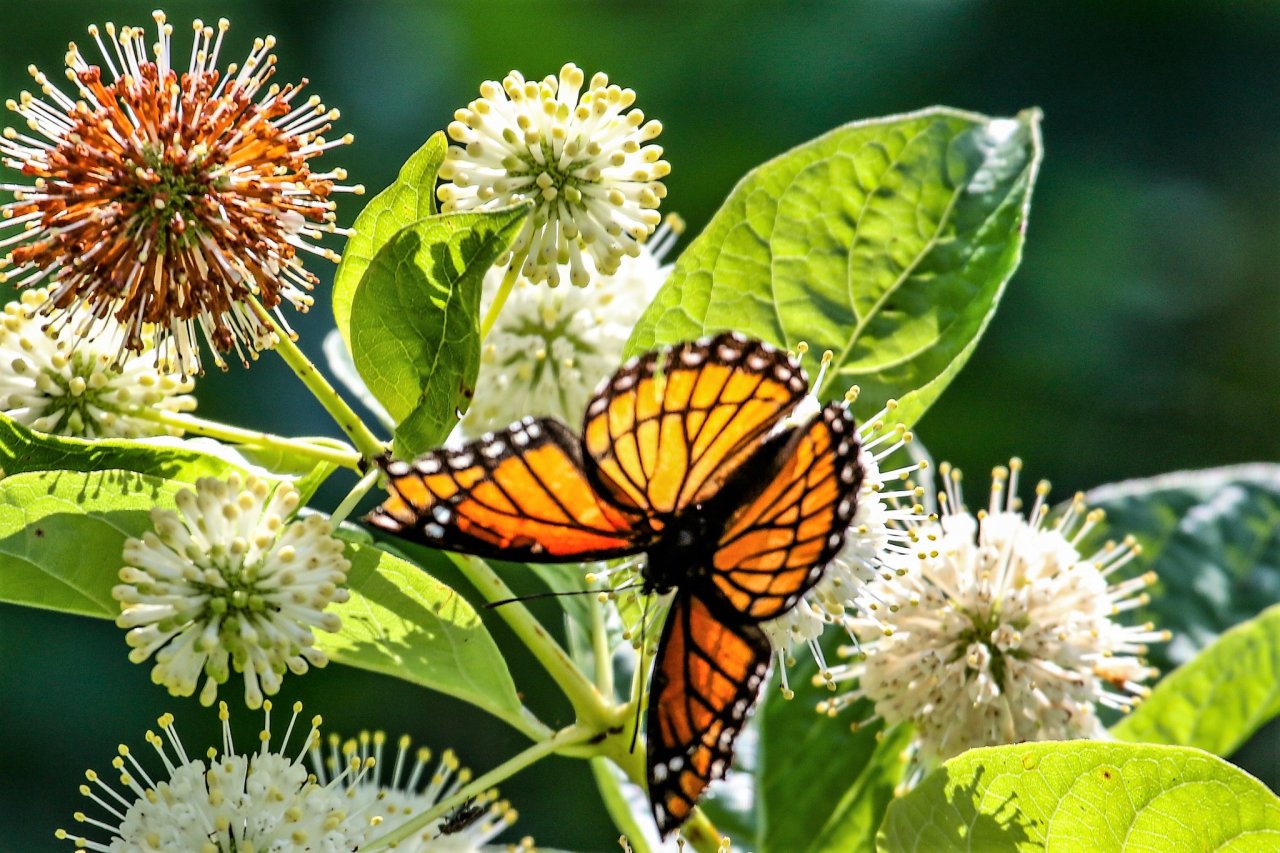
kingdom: Animalia
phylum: Arthropoda
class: Insecta
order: Lepidoptera
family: Nymphalidae
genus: Limenitis
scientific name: Limenitis archippus
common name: Viceroy
